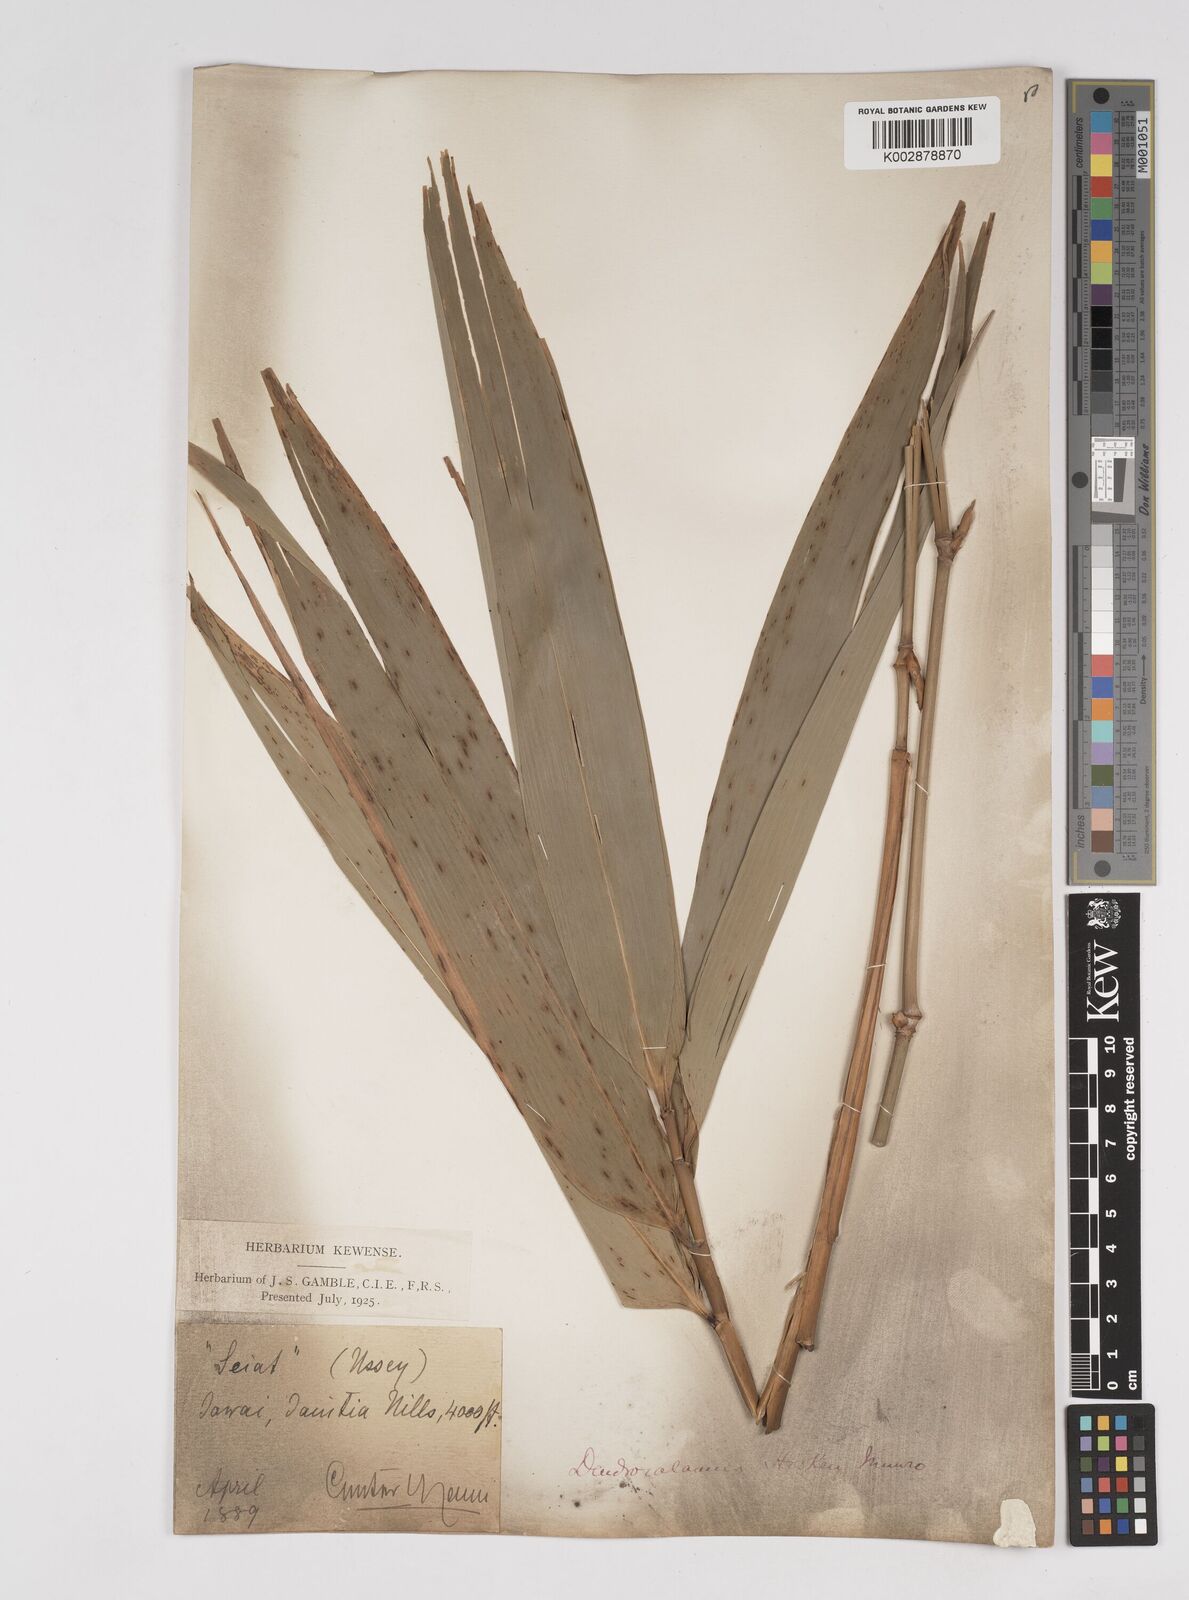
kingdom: Plantae
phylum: Tracheophyta
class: Liliopsida
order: Poales
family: Poaceae
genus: Dendrocalamus
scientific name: Dendrocalamus hookeri
